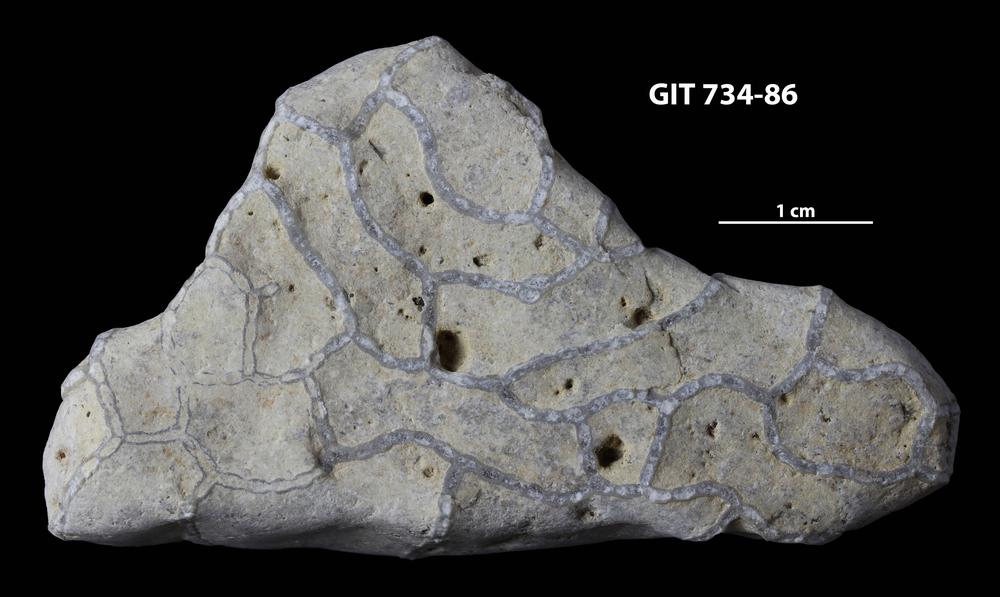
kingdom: Animalia
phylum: Cnidaria
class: Anthozoa
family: Cateniporidae
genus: Catenipora
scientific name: Catenipora
